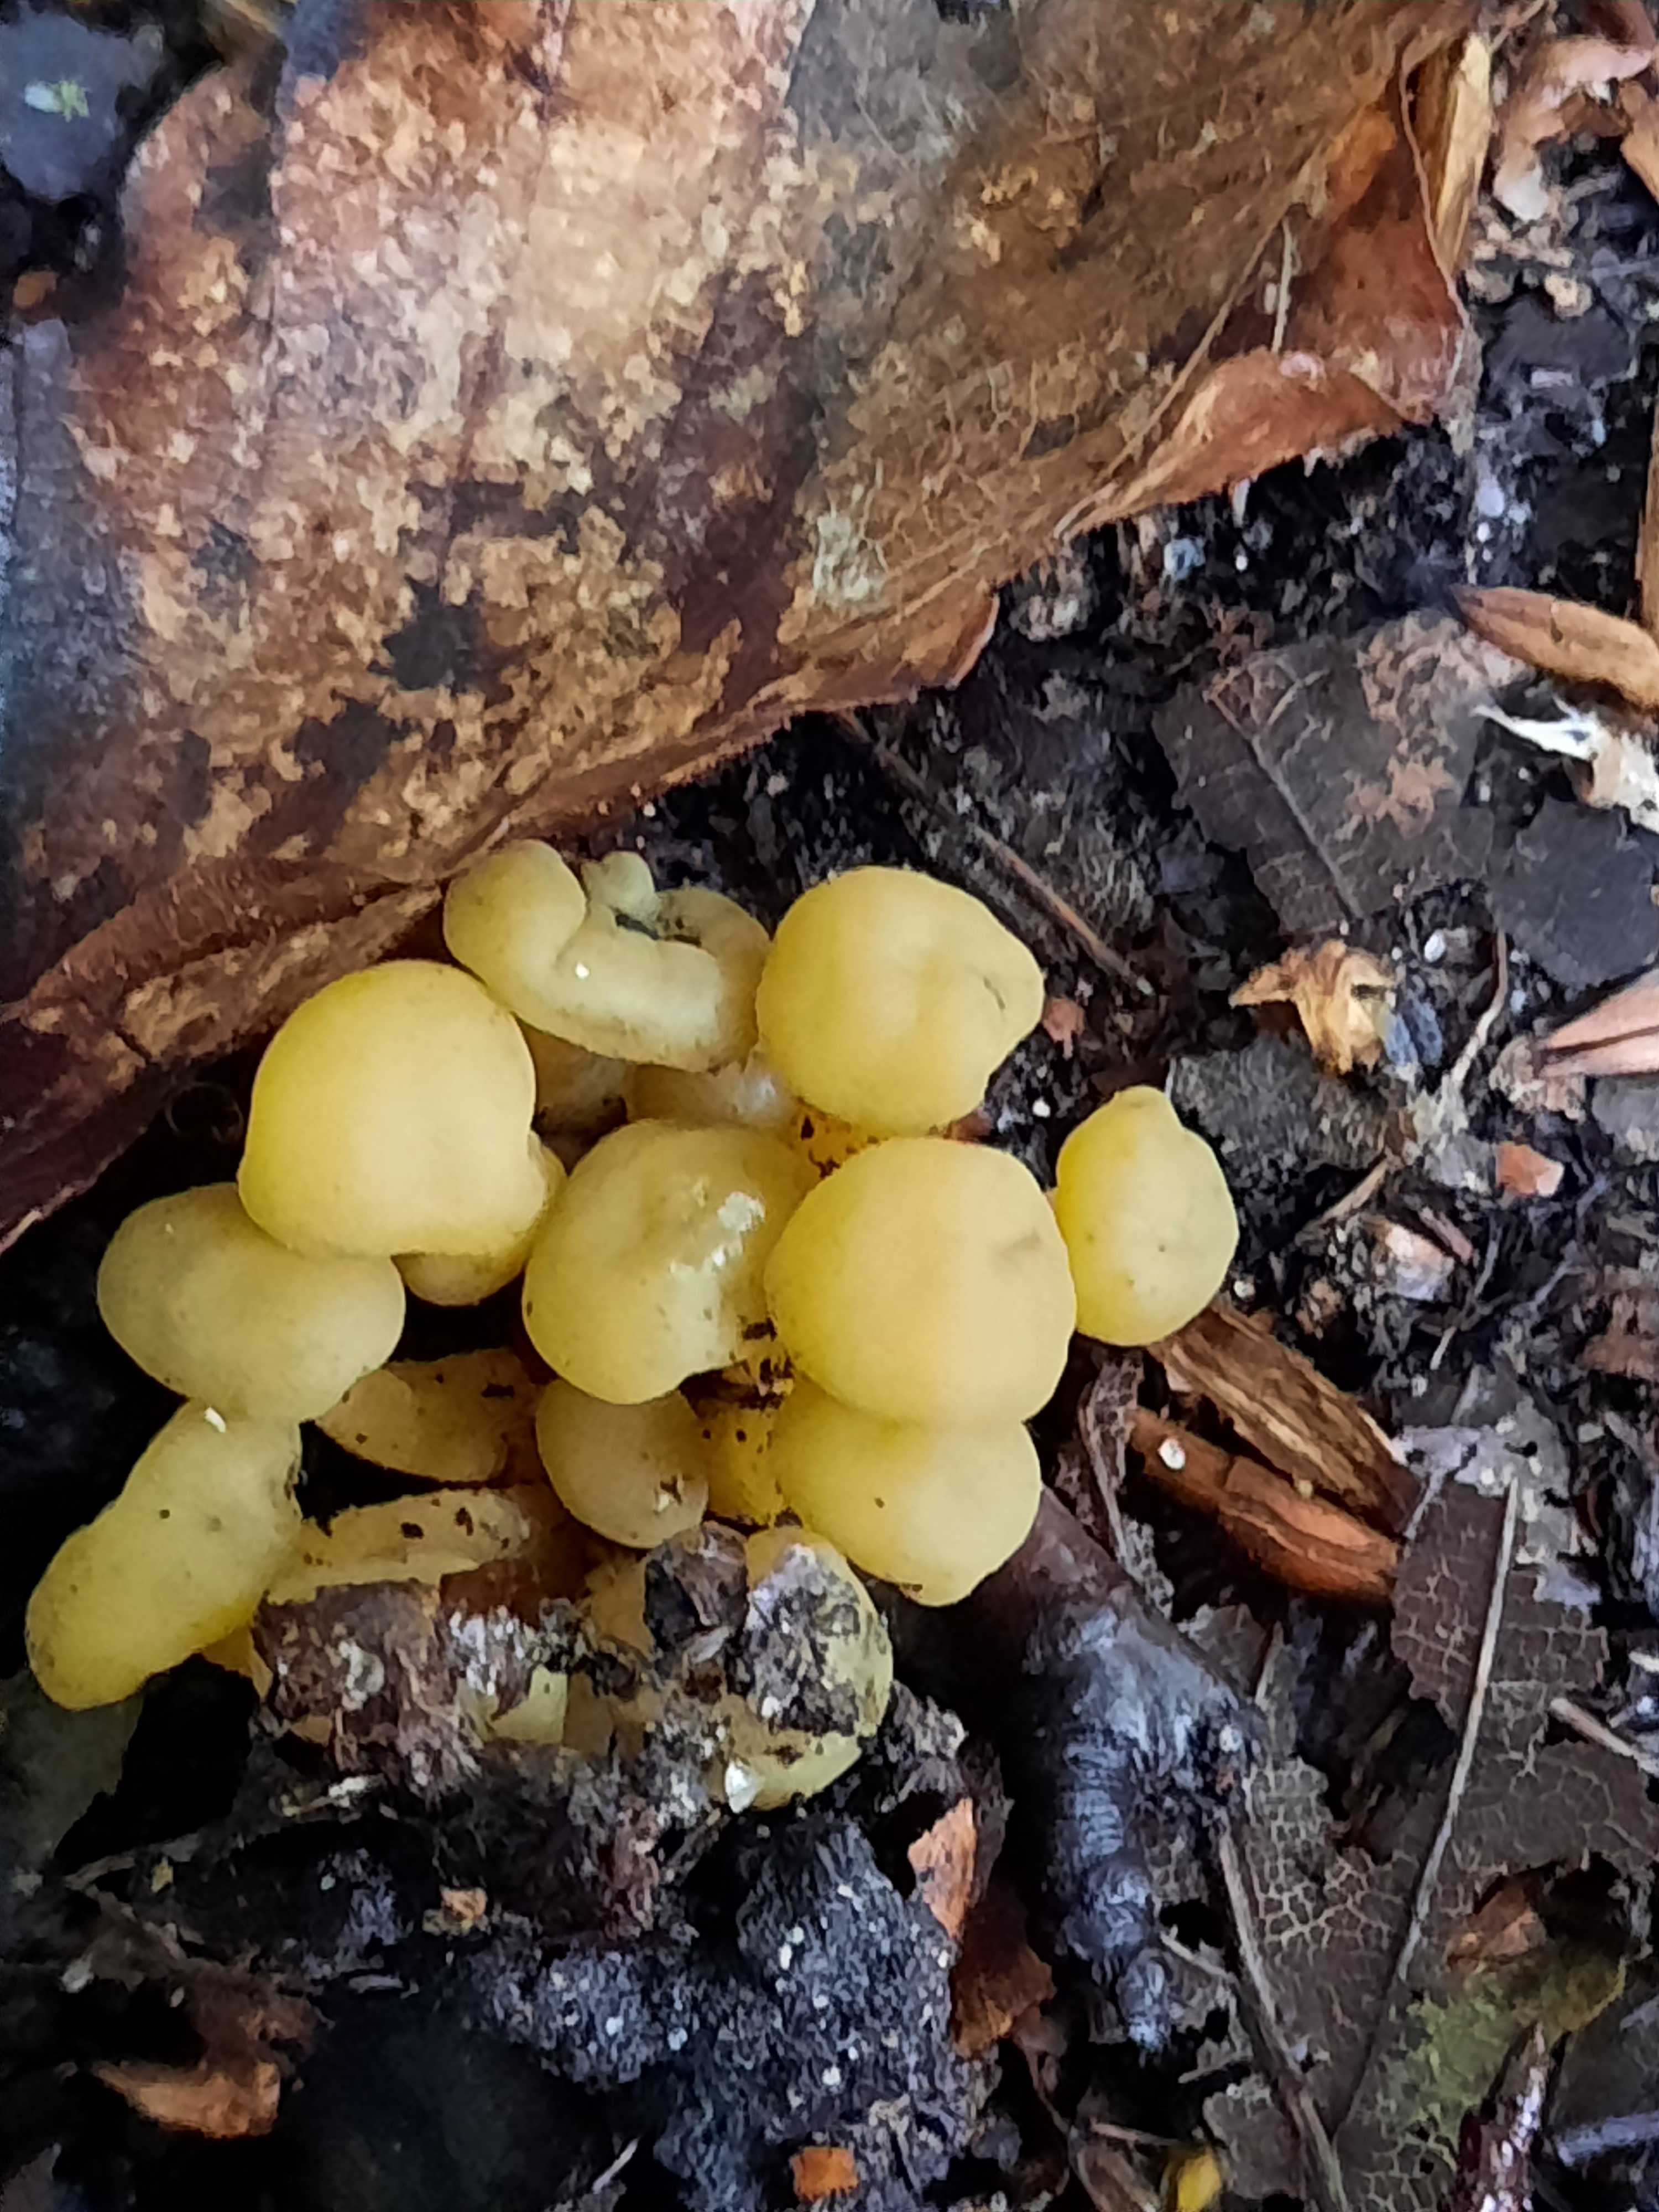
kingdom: Fungi
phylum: Ascomycota
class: Leotiomycetes
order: Leotiales
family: Leotiaceae
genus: Leotia
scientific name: Leotia lubrica
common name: ravsvamp
